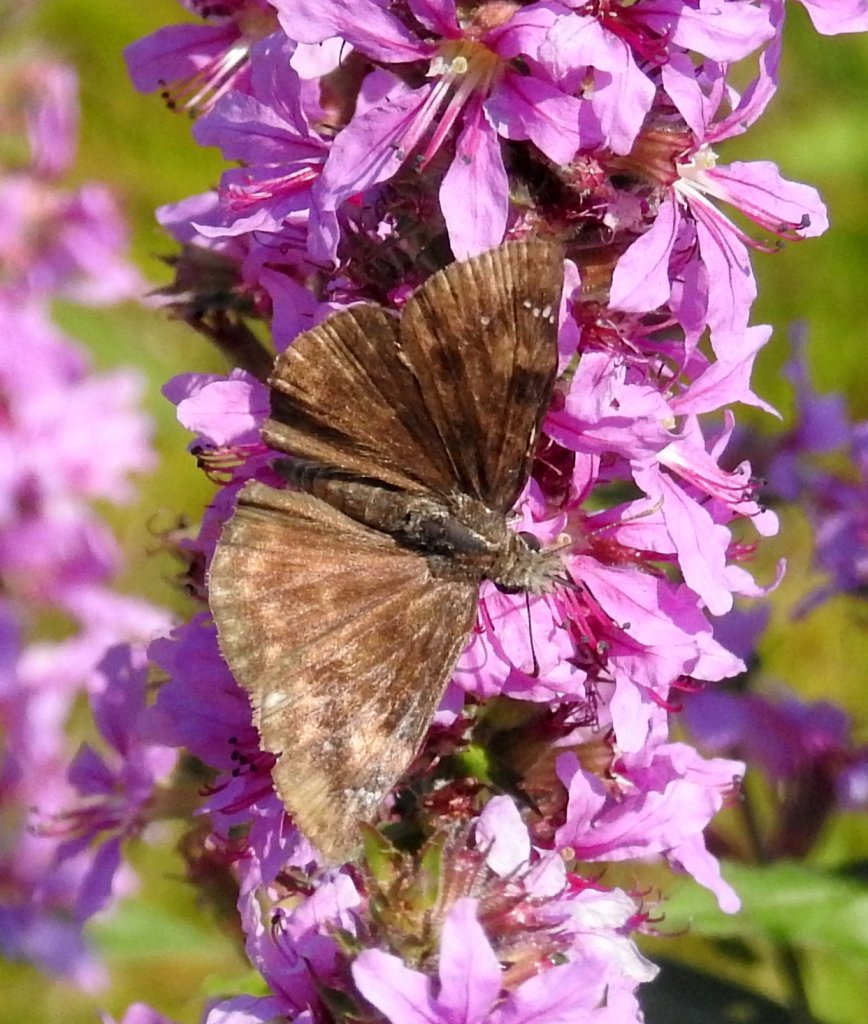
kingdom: Animalia
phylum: Arthropoda
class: Insecta
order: Lepidoptera
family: Hesperiidae
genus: Gesta
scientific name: Gesta
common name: Wild Indigo Duskywing
